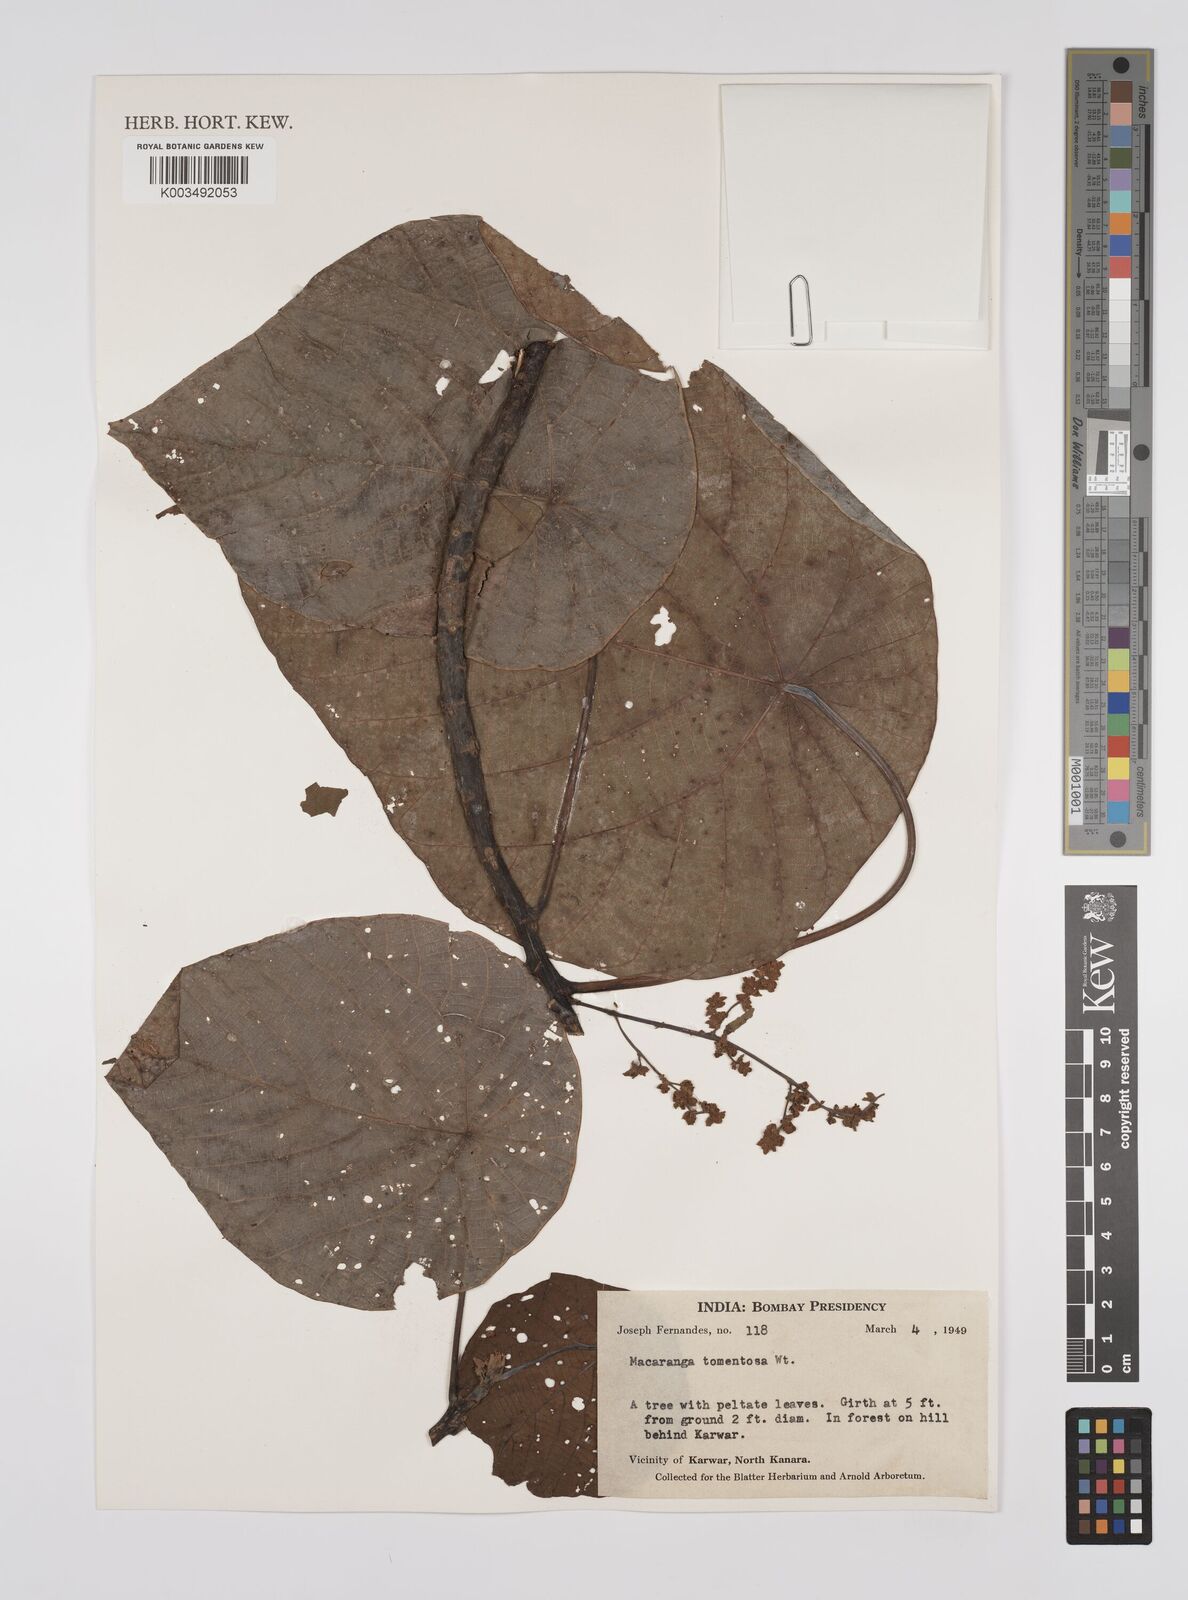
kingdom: Plantae
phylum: Tracheophyta
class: Magnoliopsida
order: Malpighiales
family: Euphorbiaceae
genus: Macaranga
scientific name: Macaranga peltata
